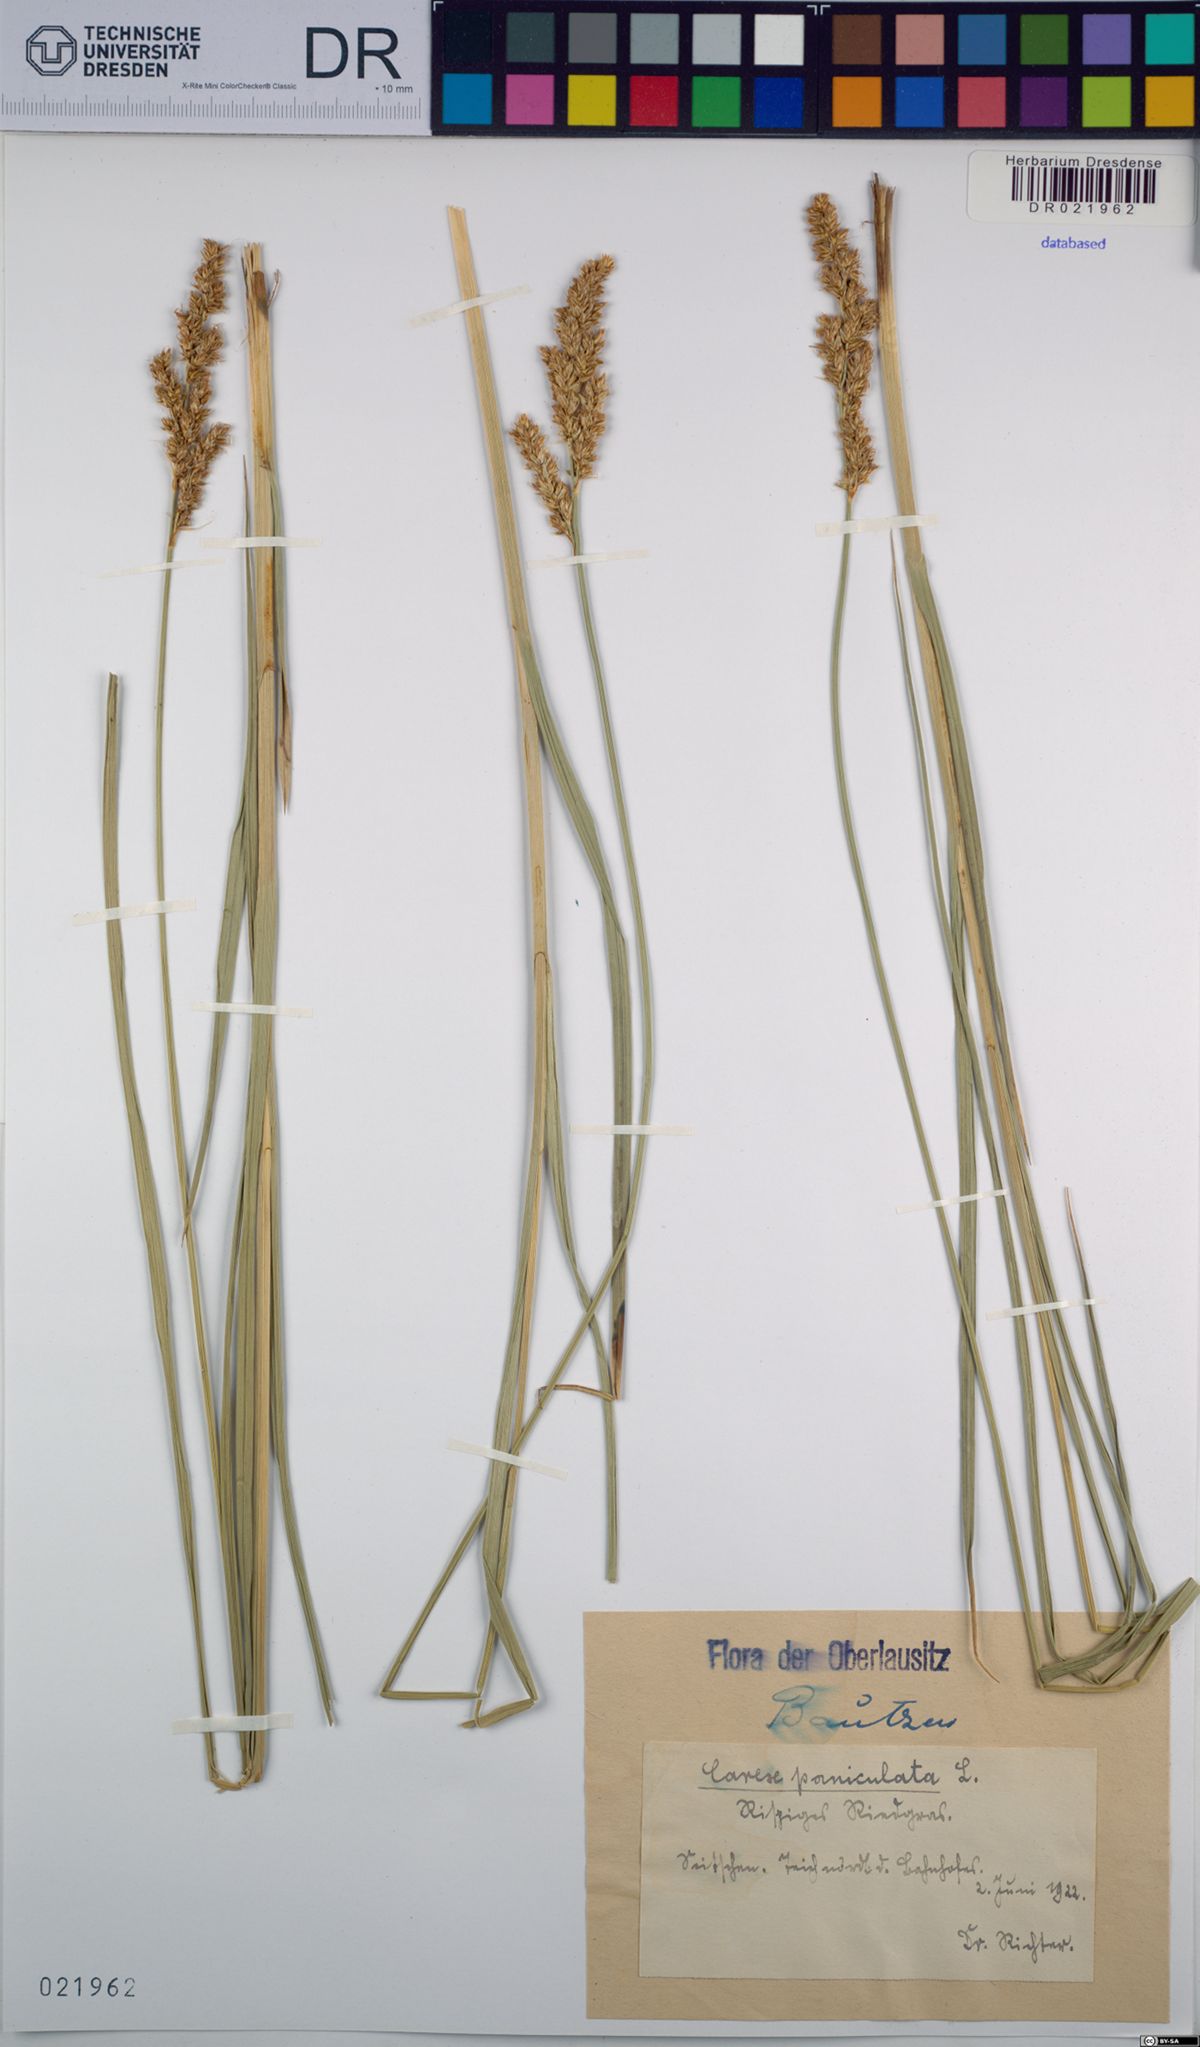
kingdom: Plantae
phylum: Tracheophyta
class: Liliopsida
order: Poales
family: Cyperaceae
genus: Carex
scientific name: Carex paniculata
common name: Greater tussock-sedge
